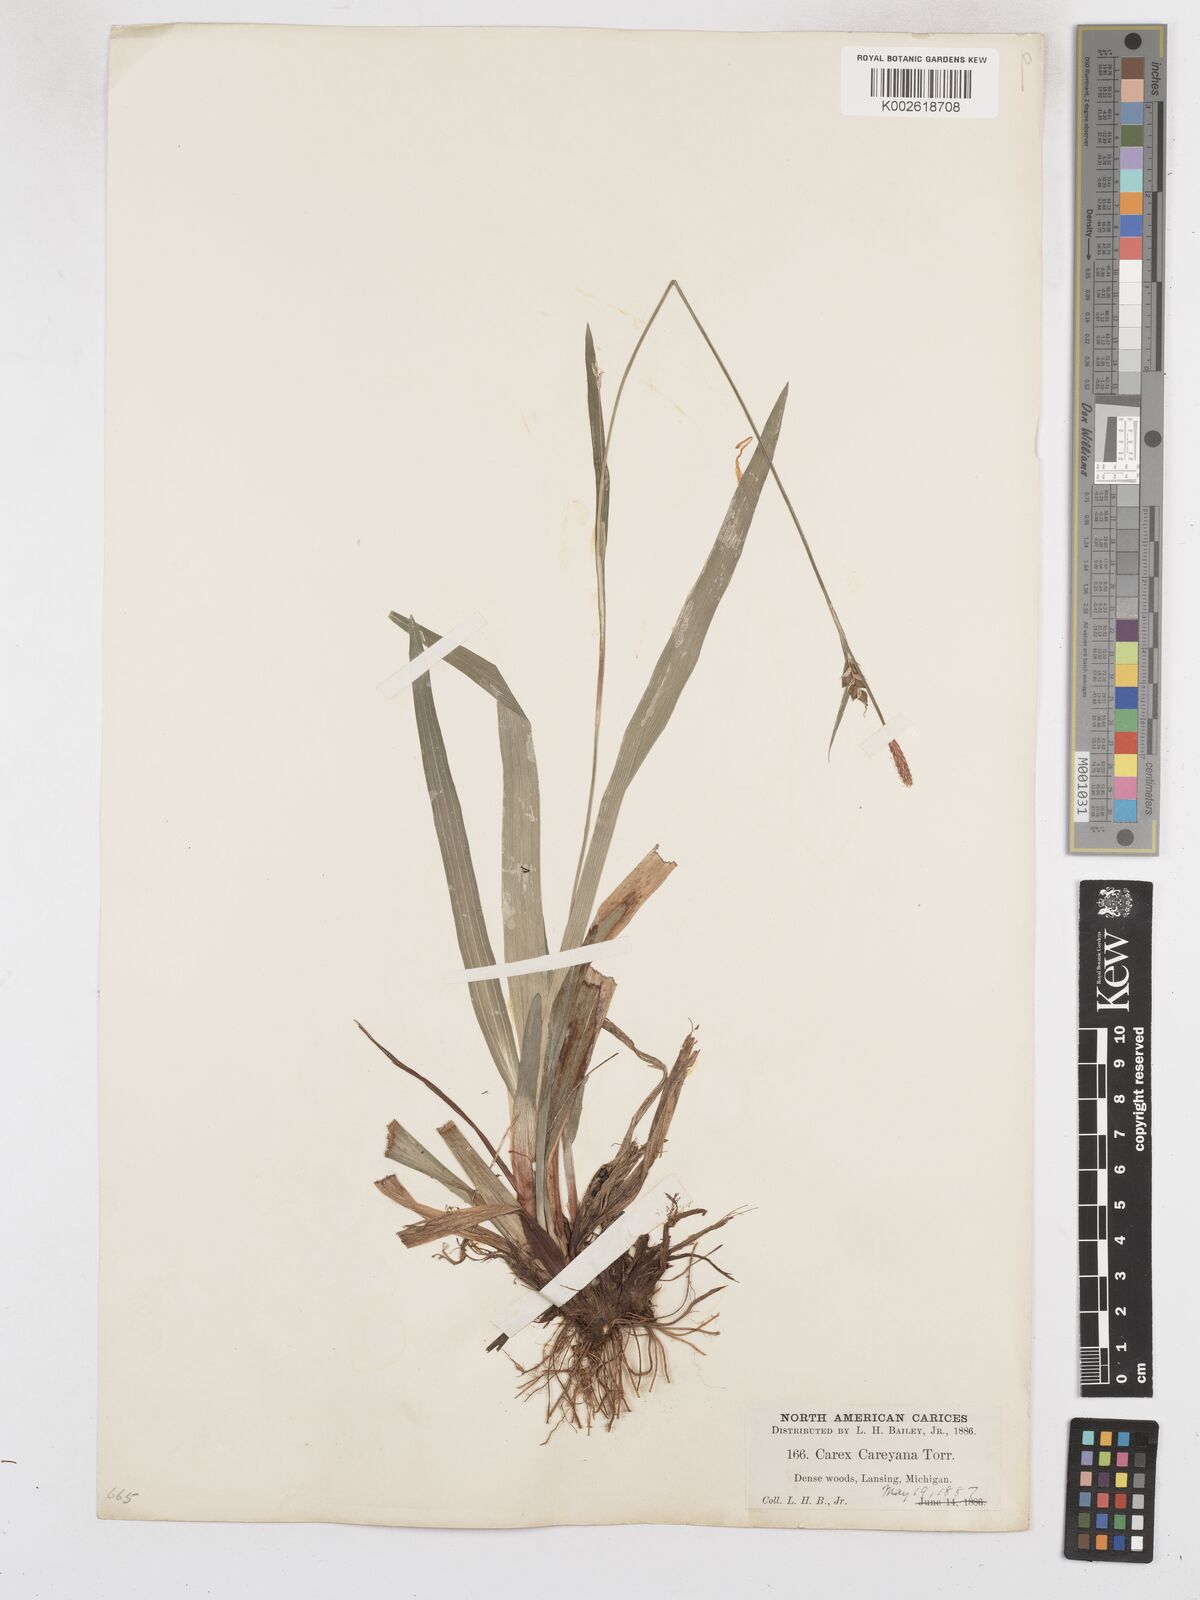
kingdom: Plantae
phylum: Tracheophyta
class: Liliopsida
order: Poales
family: Cyperaceae
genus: Carex
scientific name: Carex careyana
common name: Carey's sedge
